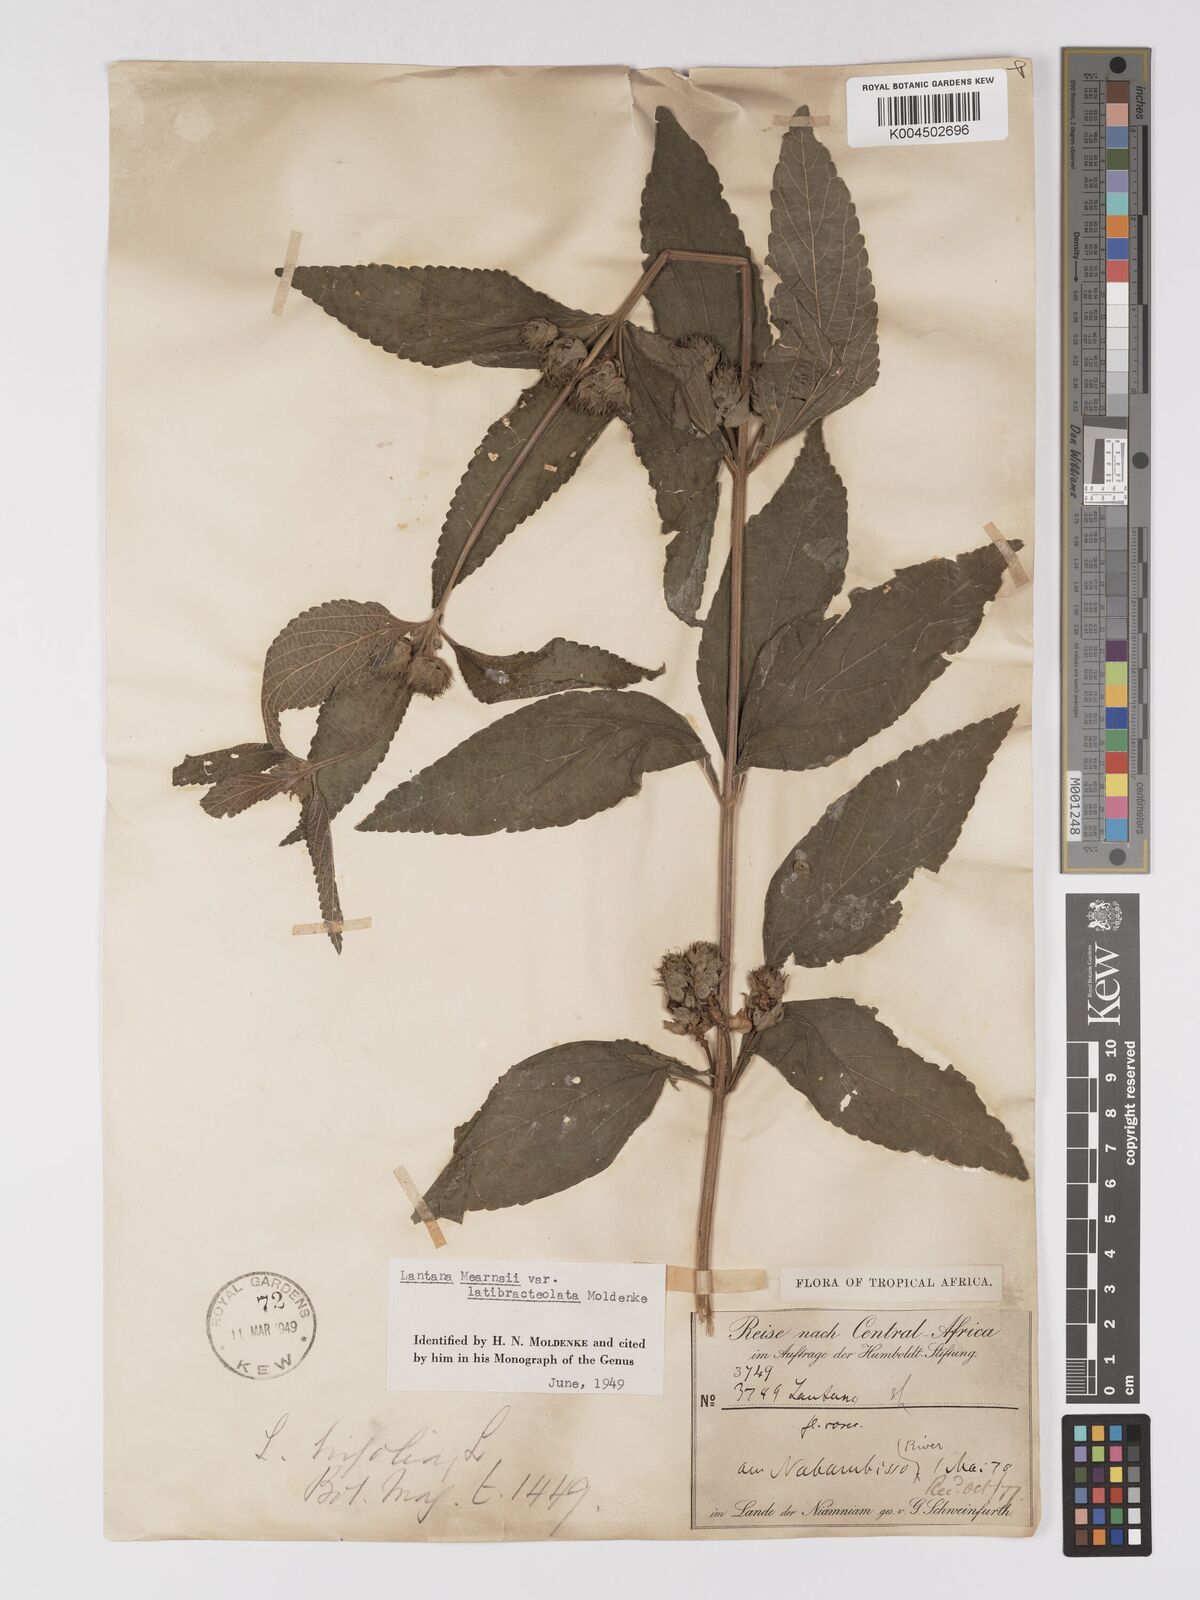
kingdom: Plantae
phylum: Tracheophyta
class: Magnoliopsida
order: Lamiales
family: Verbenaceae
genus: Lantana
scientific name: Lantana ukambensis
